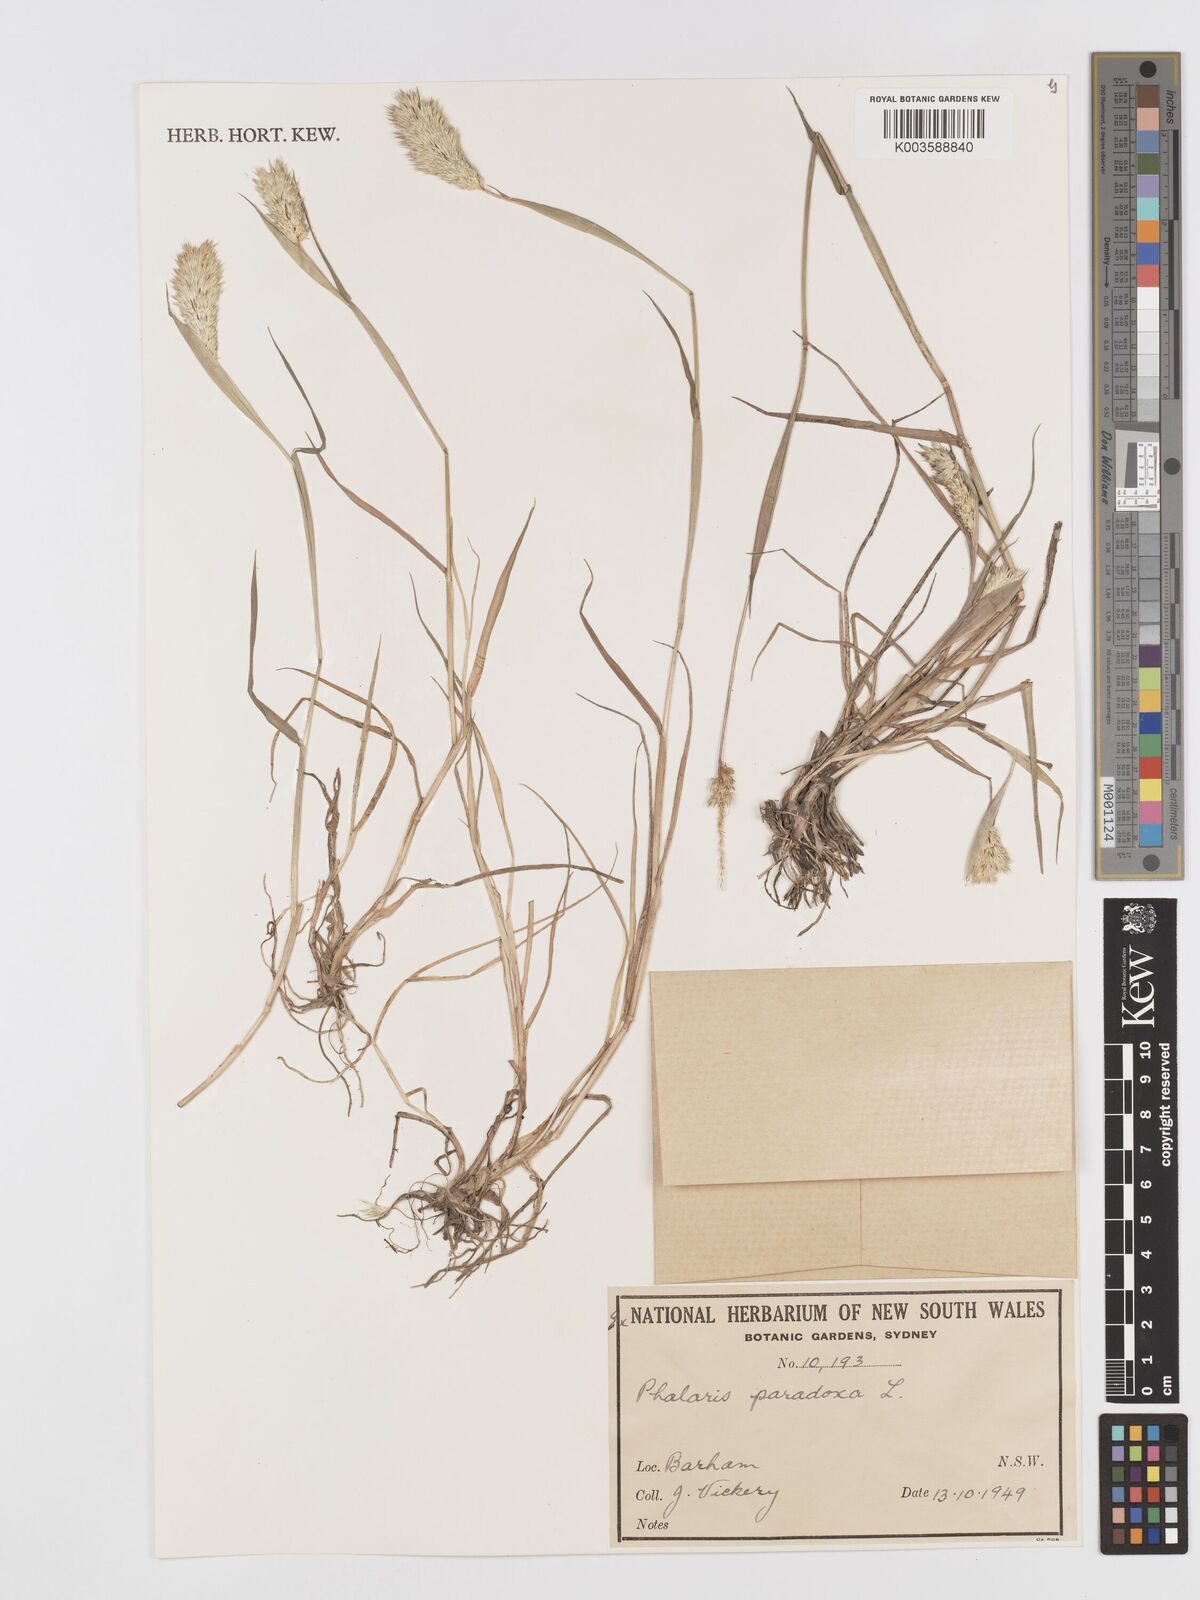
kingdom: Plantae
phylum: Tracheophyta
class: Liliopsida
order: Poales
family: Poaceae
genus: Phalaris
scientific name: Phalaris paradoxa
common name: Awned canary-grass
